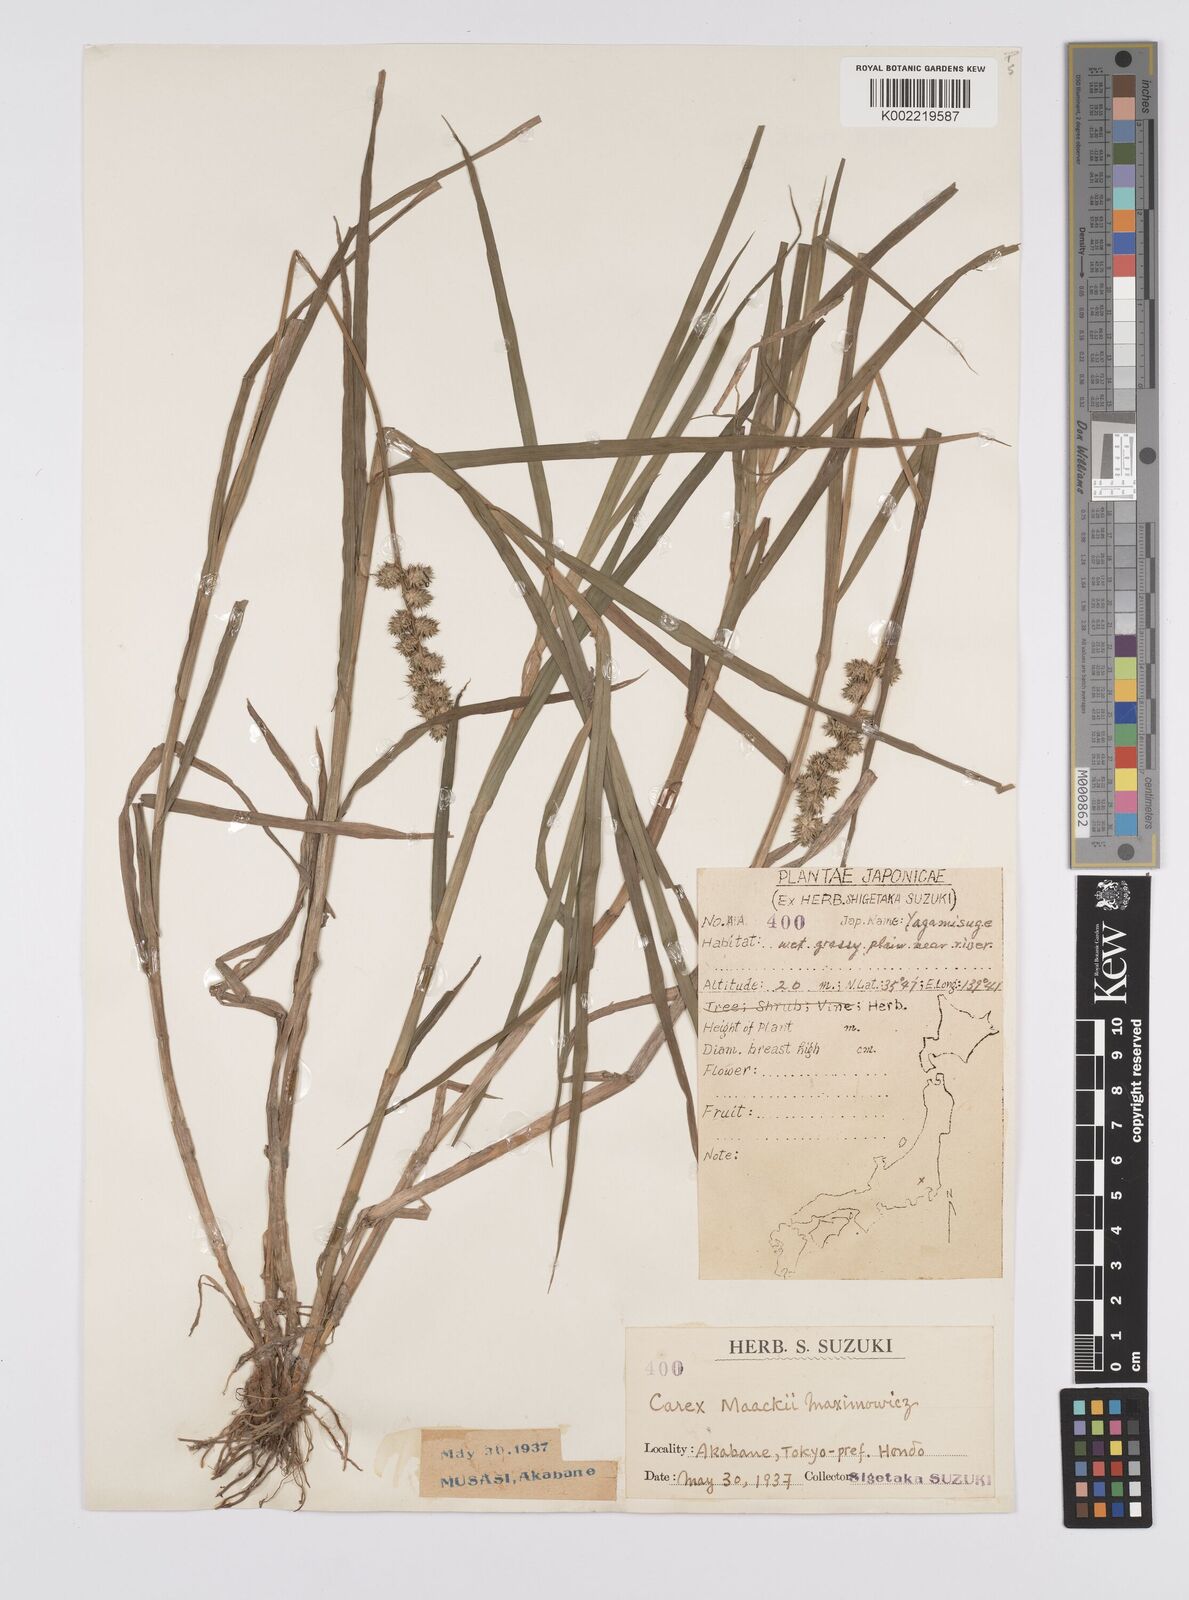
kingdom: Plantae
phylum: Tracheophyta
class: Liliopsida
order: Poales
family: Cyperaceae
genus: Carex
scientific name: Carex maackii
